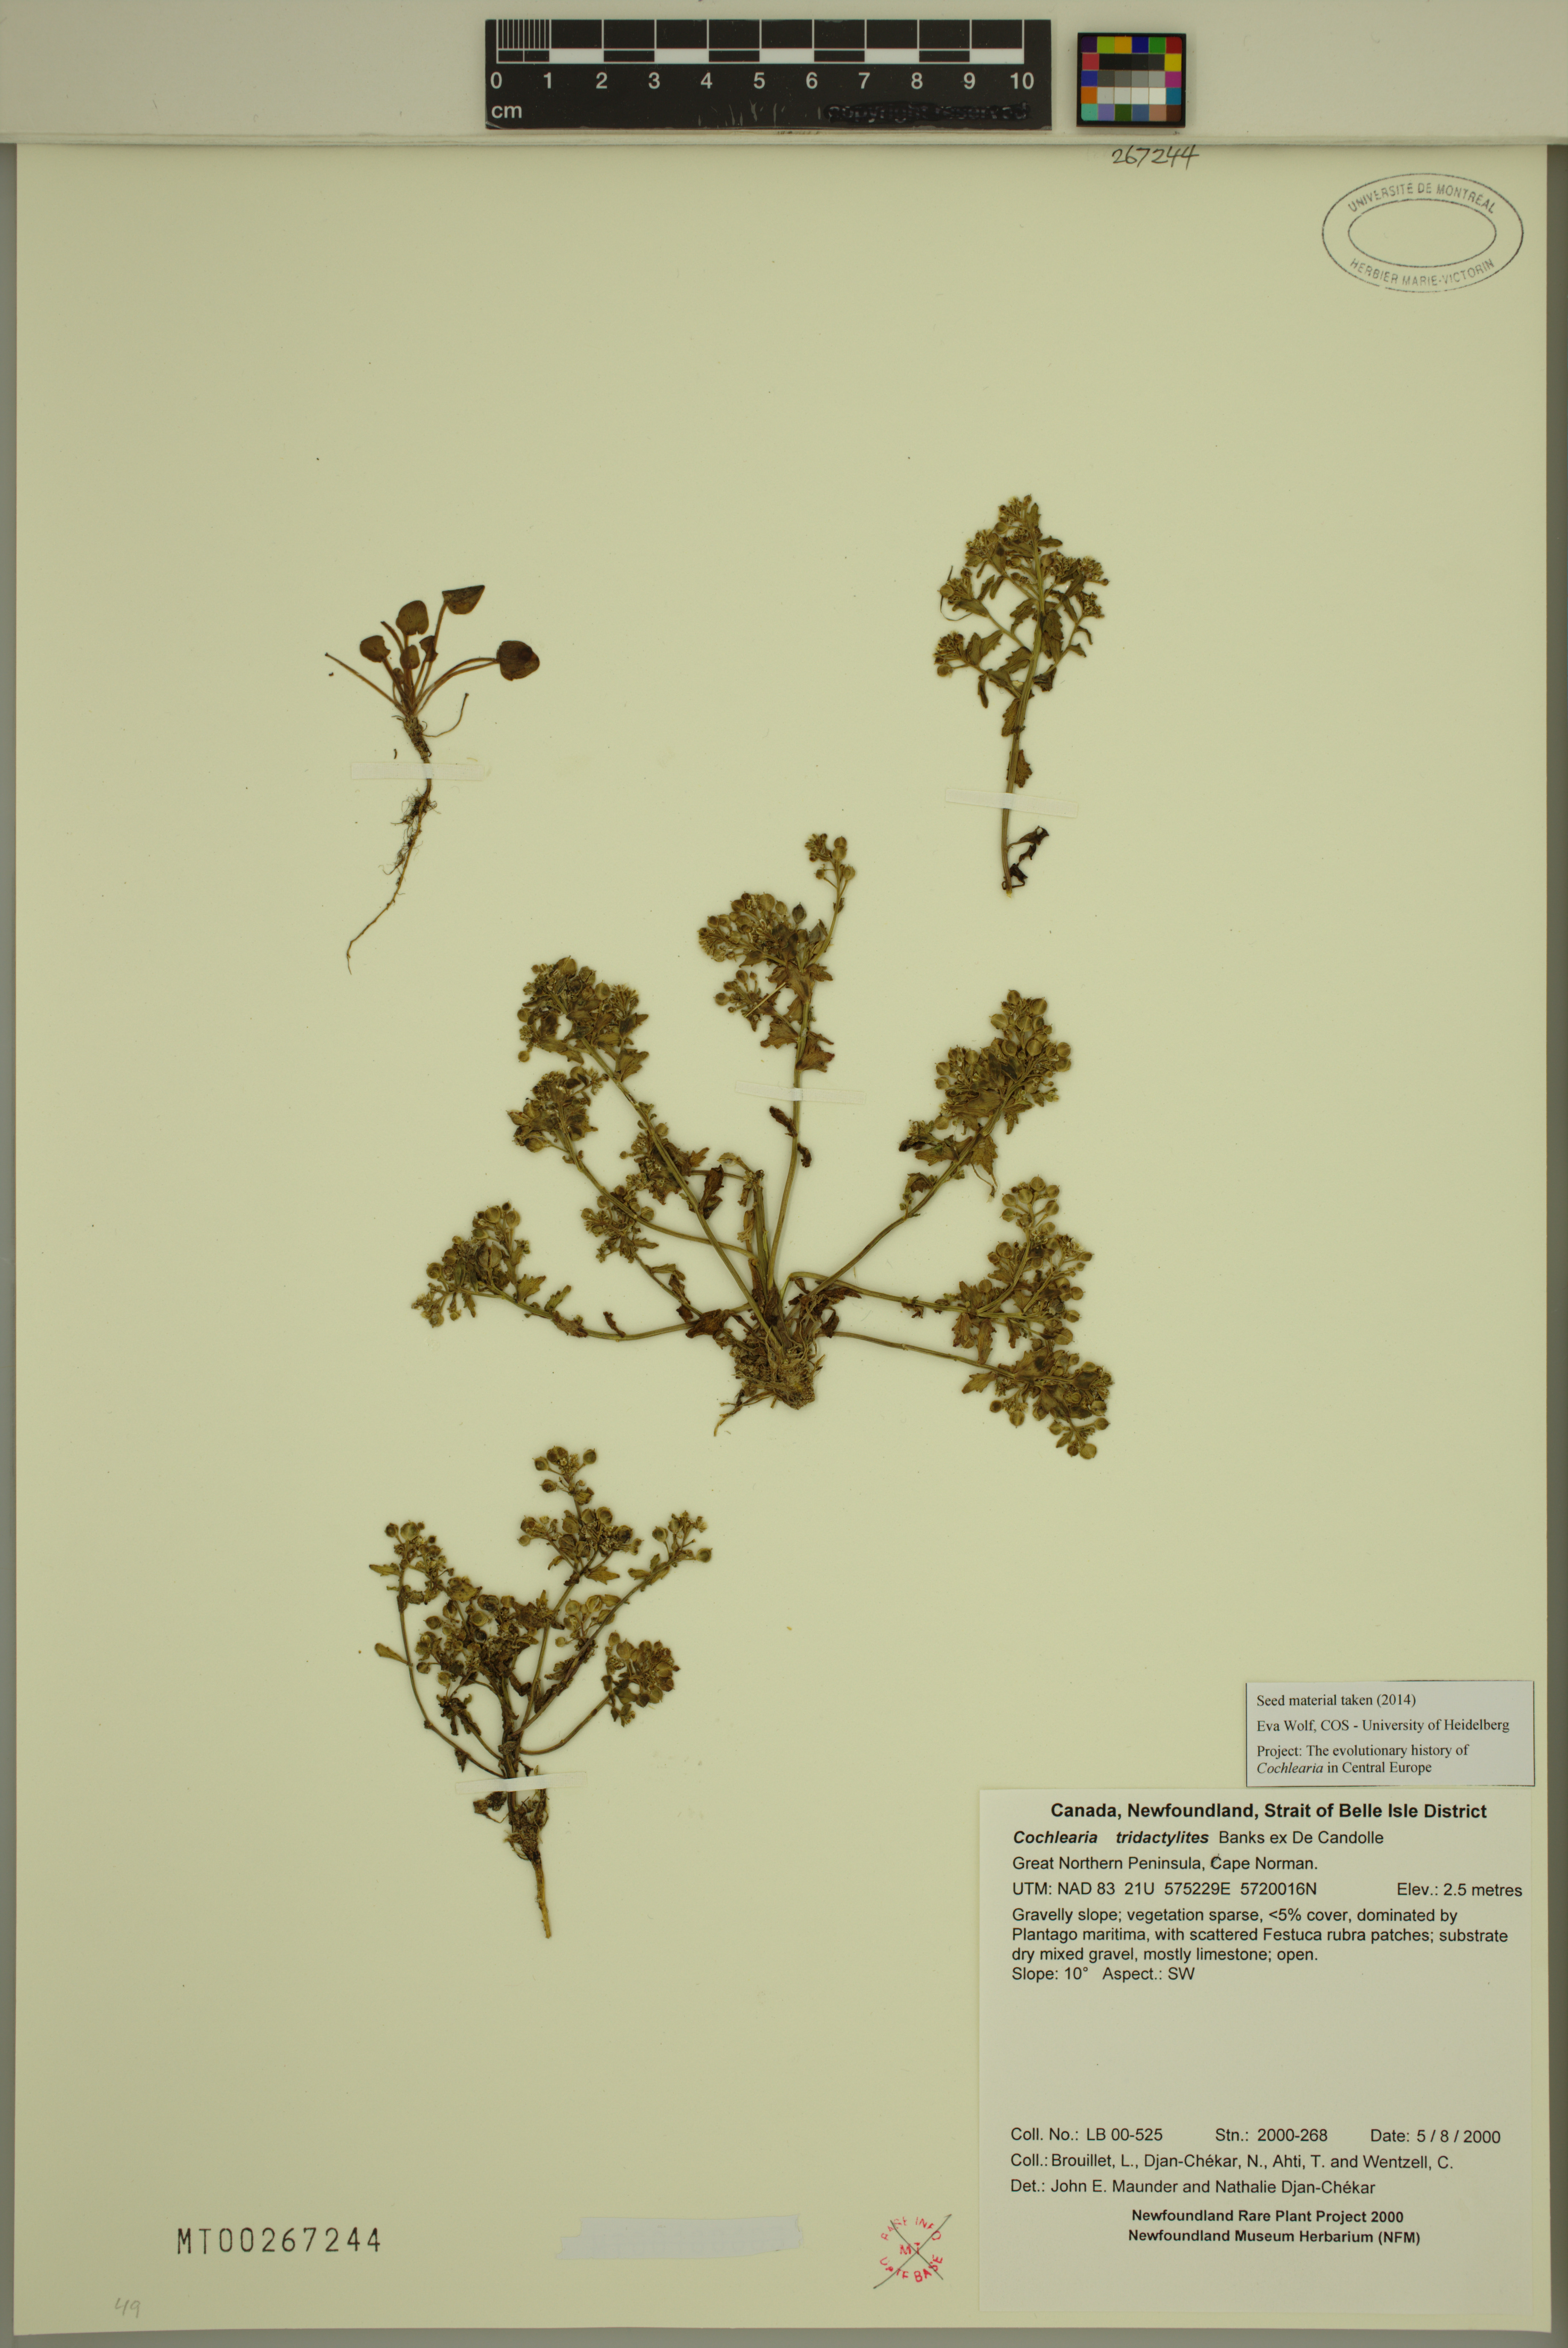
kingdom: Plantae
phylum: Tracheophyta
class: Magnoliopsida
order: Brassicales
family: Brassicaceae
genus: Cochlearia
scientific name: Cochlearia tridactylites
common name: Limestone scurvygrass
